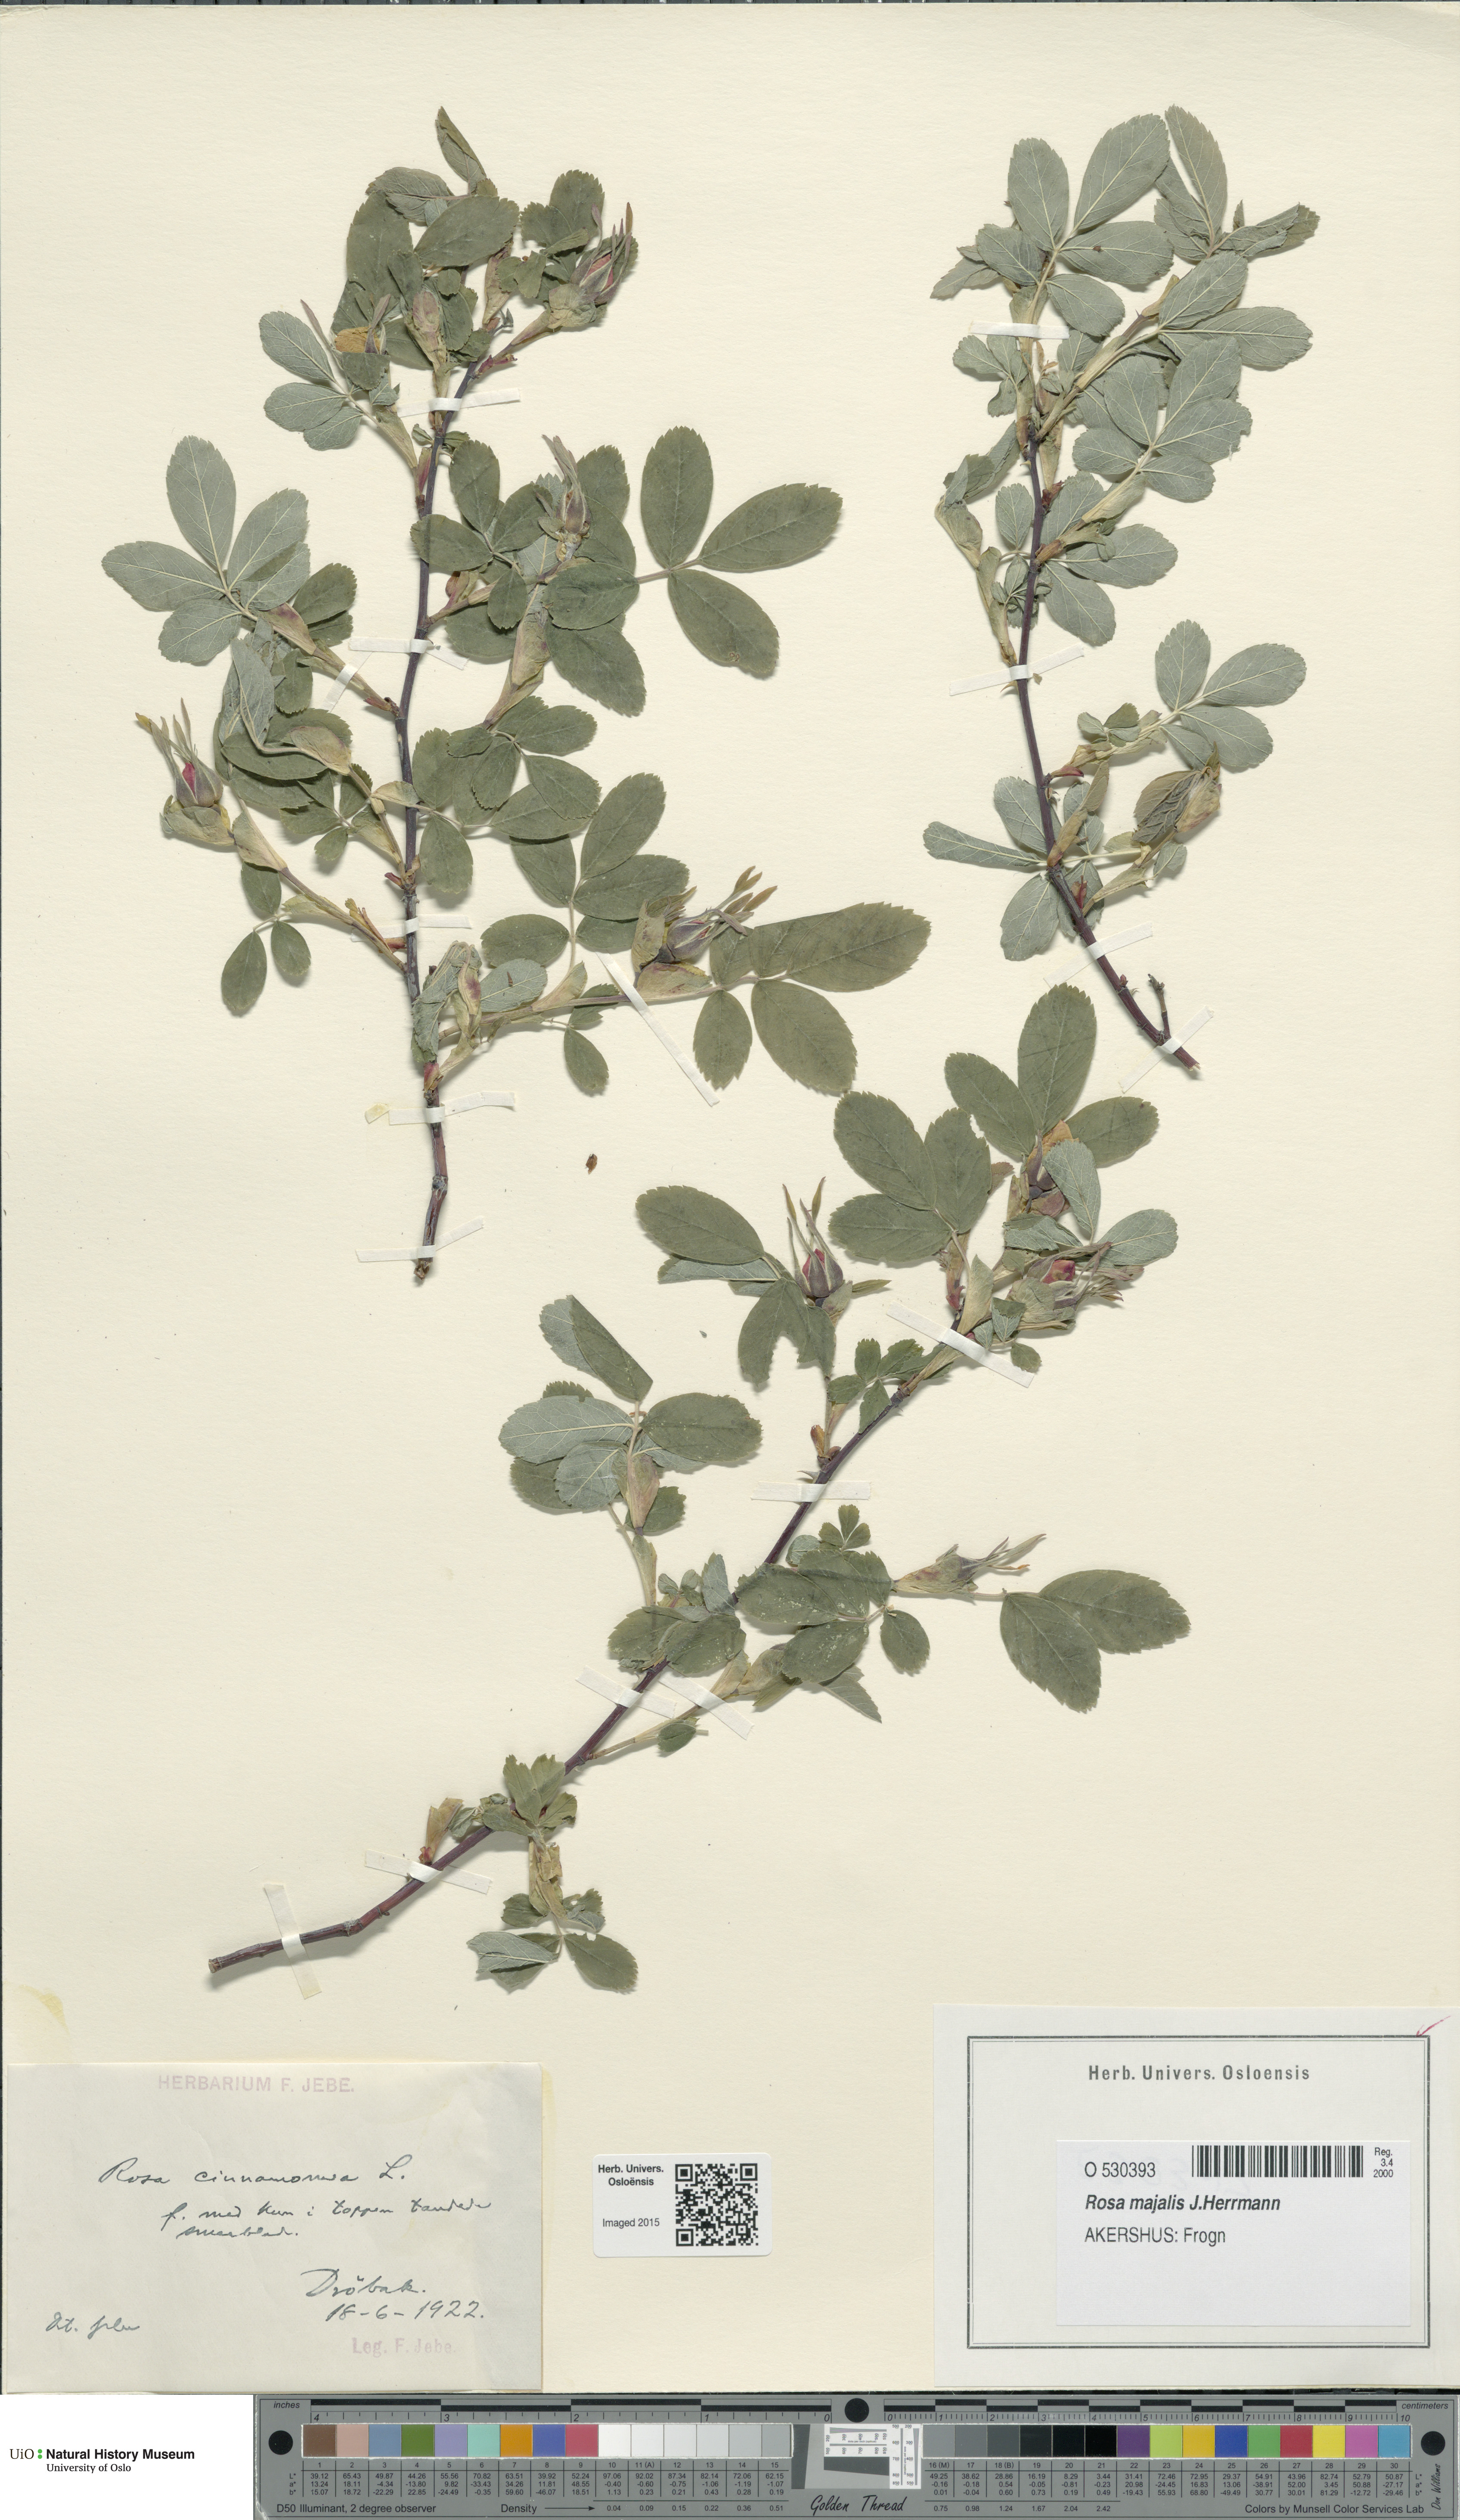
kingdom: Plantae
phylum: Tracheophyta
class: Magnoliopsida
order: Rosales
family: Rosaceae
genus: Rosa
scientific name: Rosa pendulina
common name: Alpine rose
